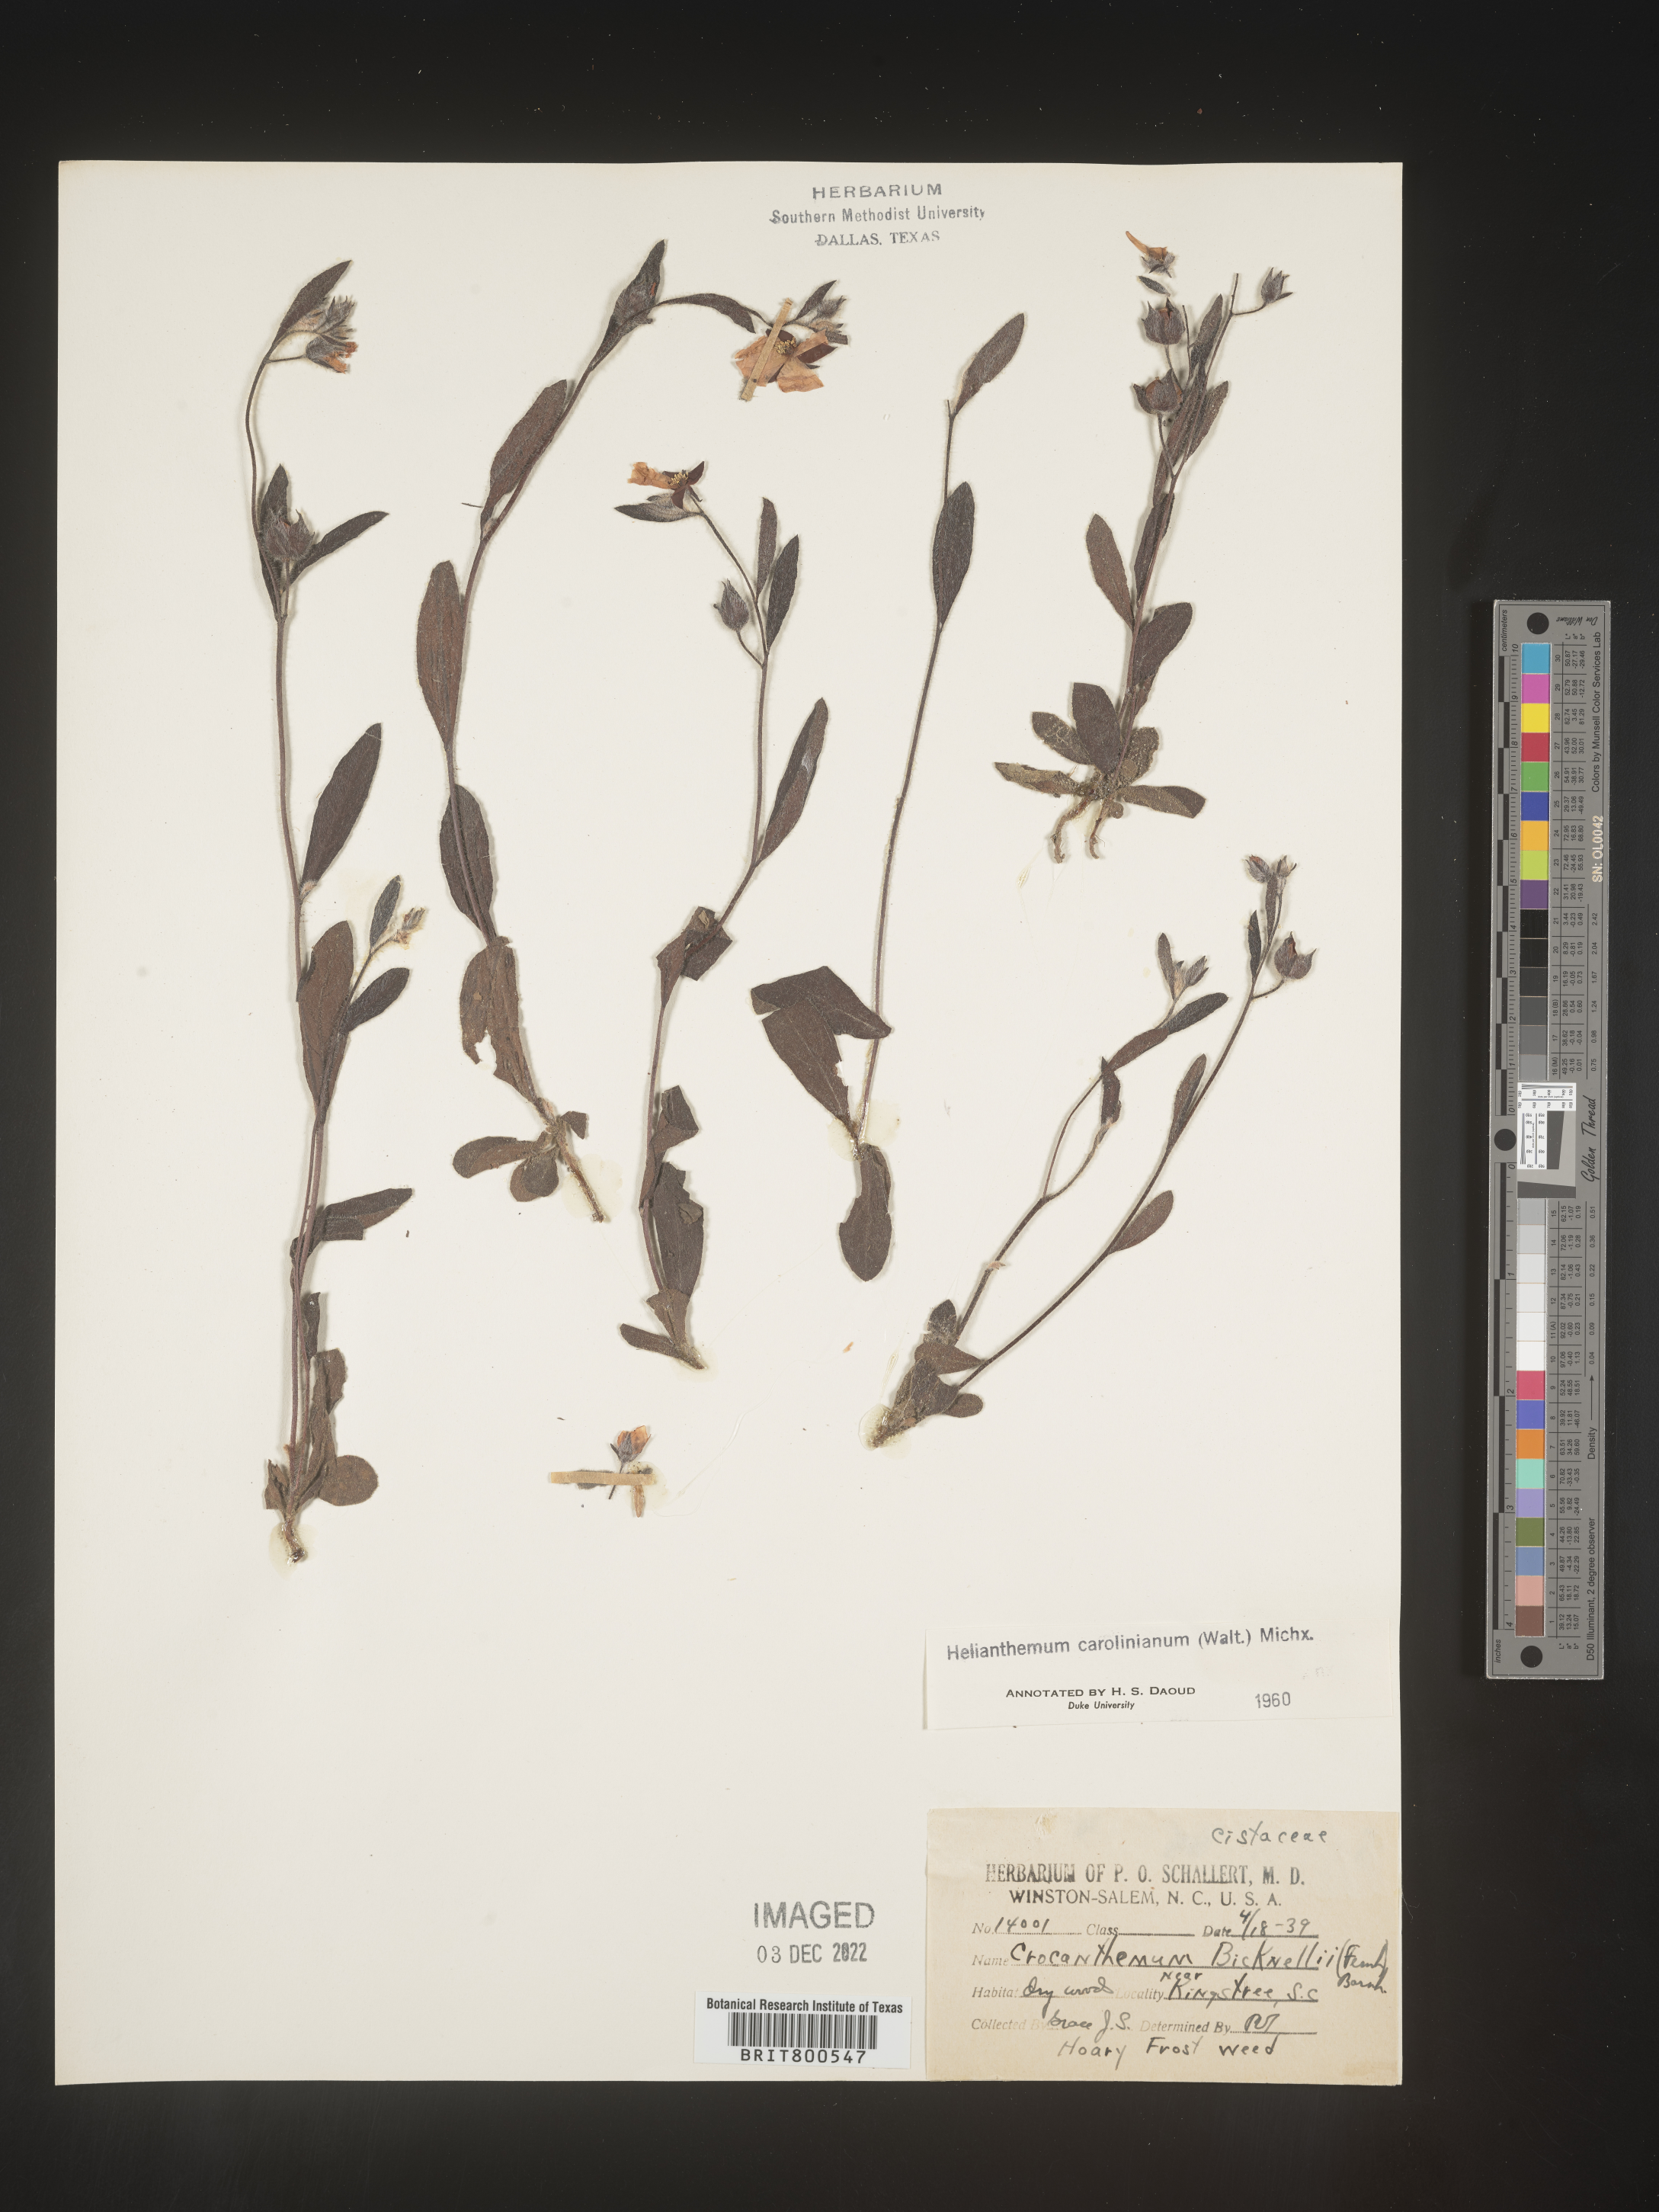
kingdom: Plantae
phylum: Tracheophyta
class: Magnoliopsida
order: Malvales
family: Cistaceae
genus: Crocanthemum
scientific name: Crocanthemum carolinianum
